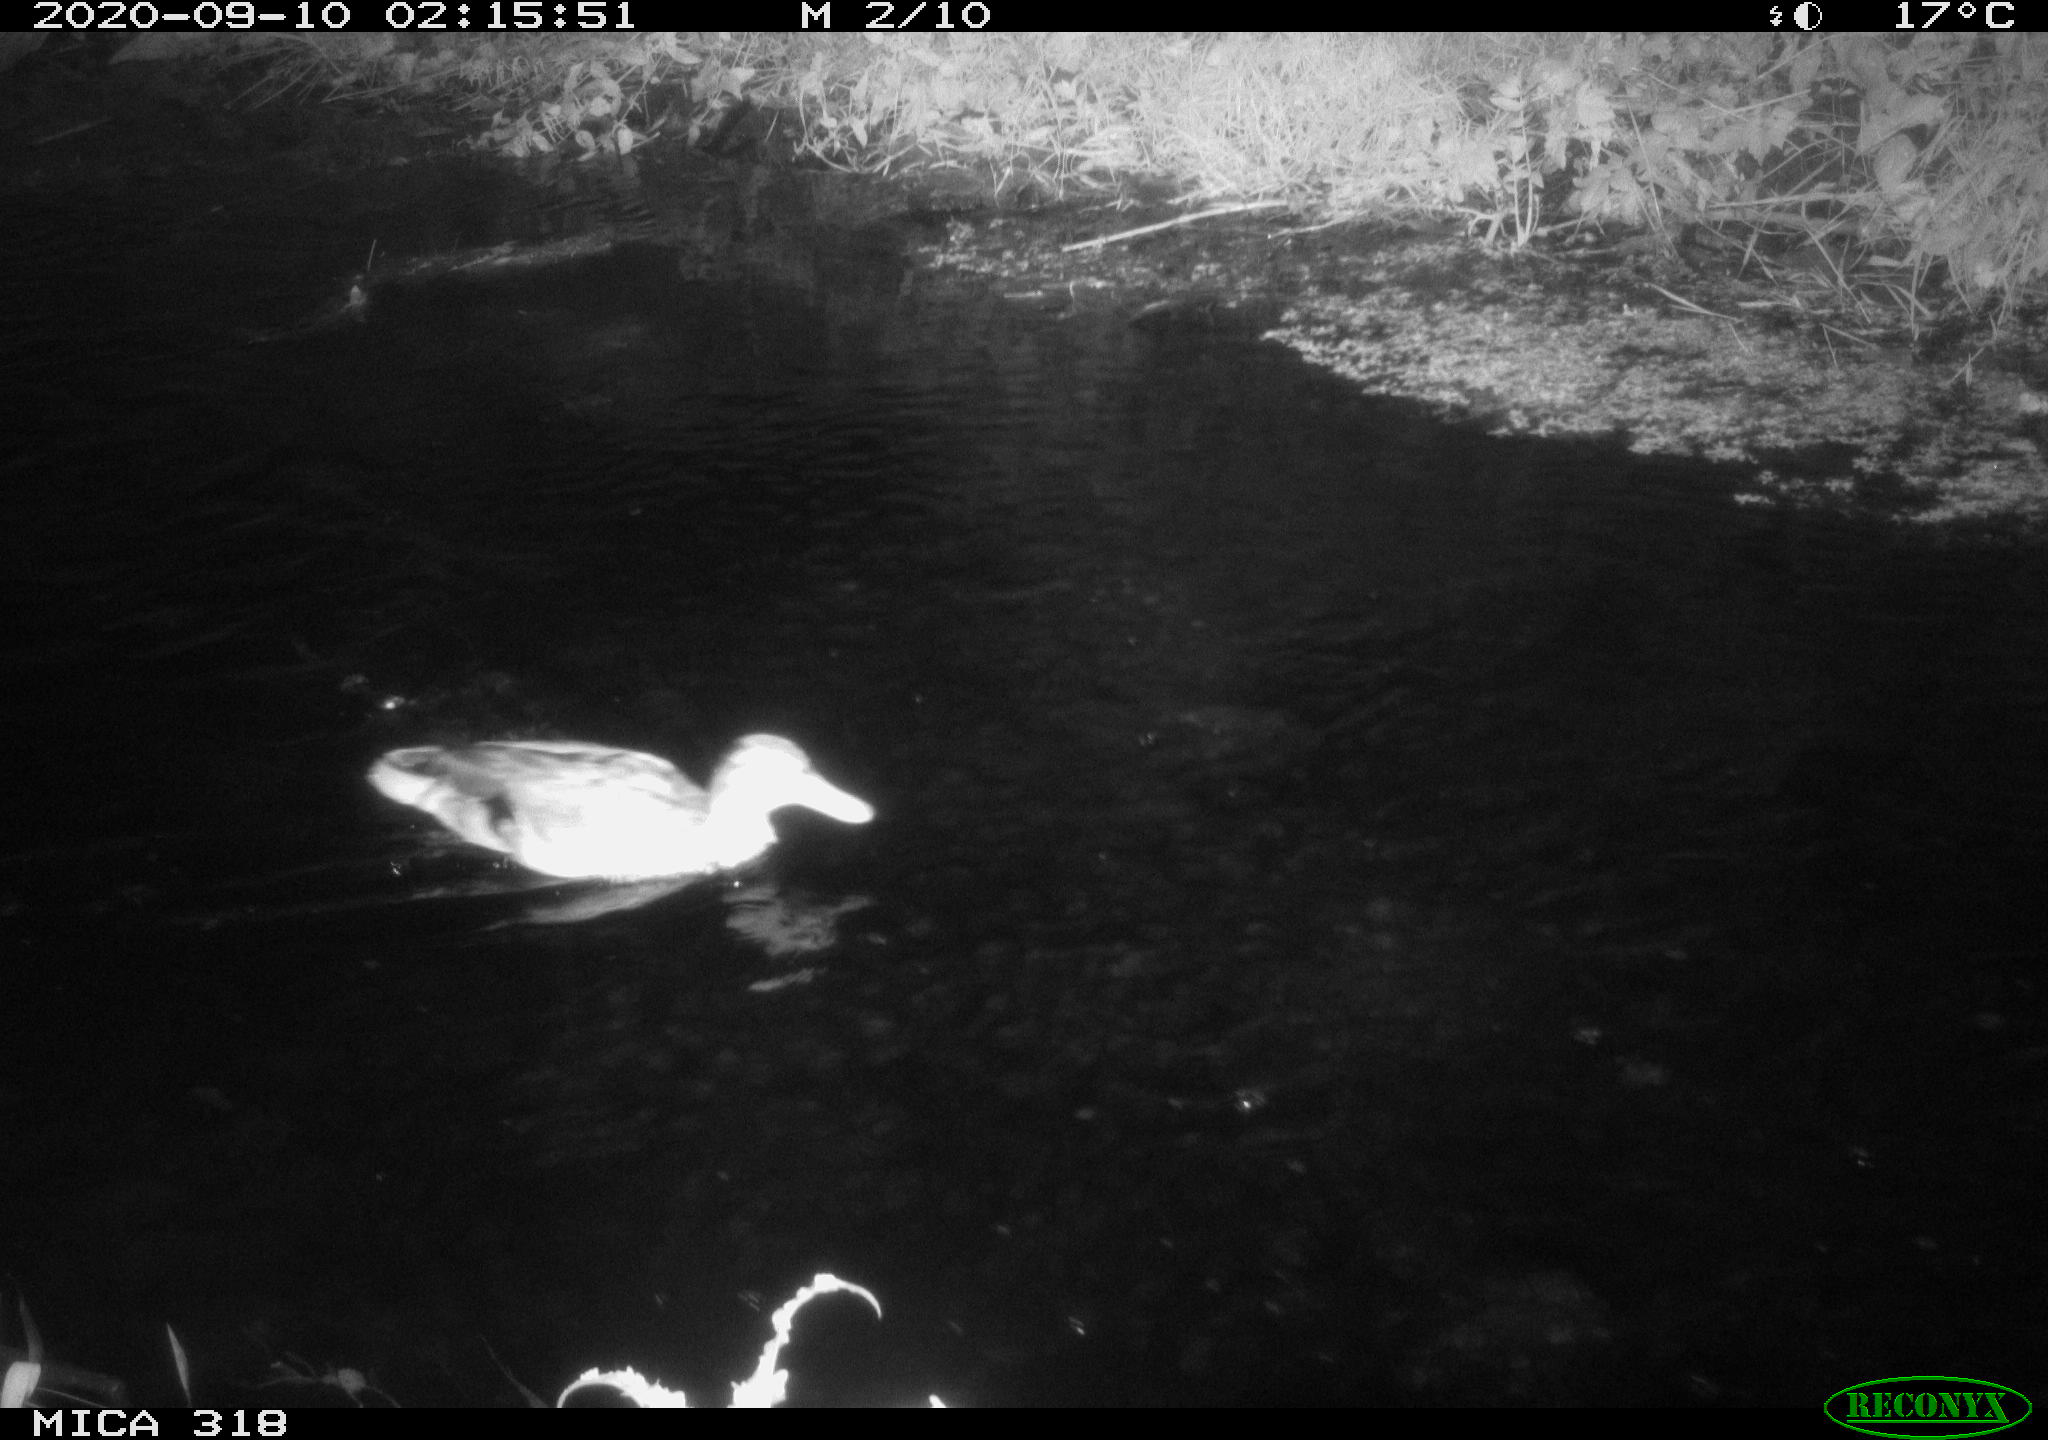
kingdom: Animalia
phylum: Chordata
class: Aves
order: Anseriformes
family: Anatidae
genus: Mareca
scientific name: Mareca strepera
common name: Gadwall
